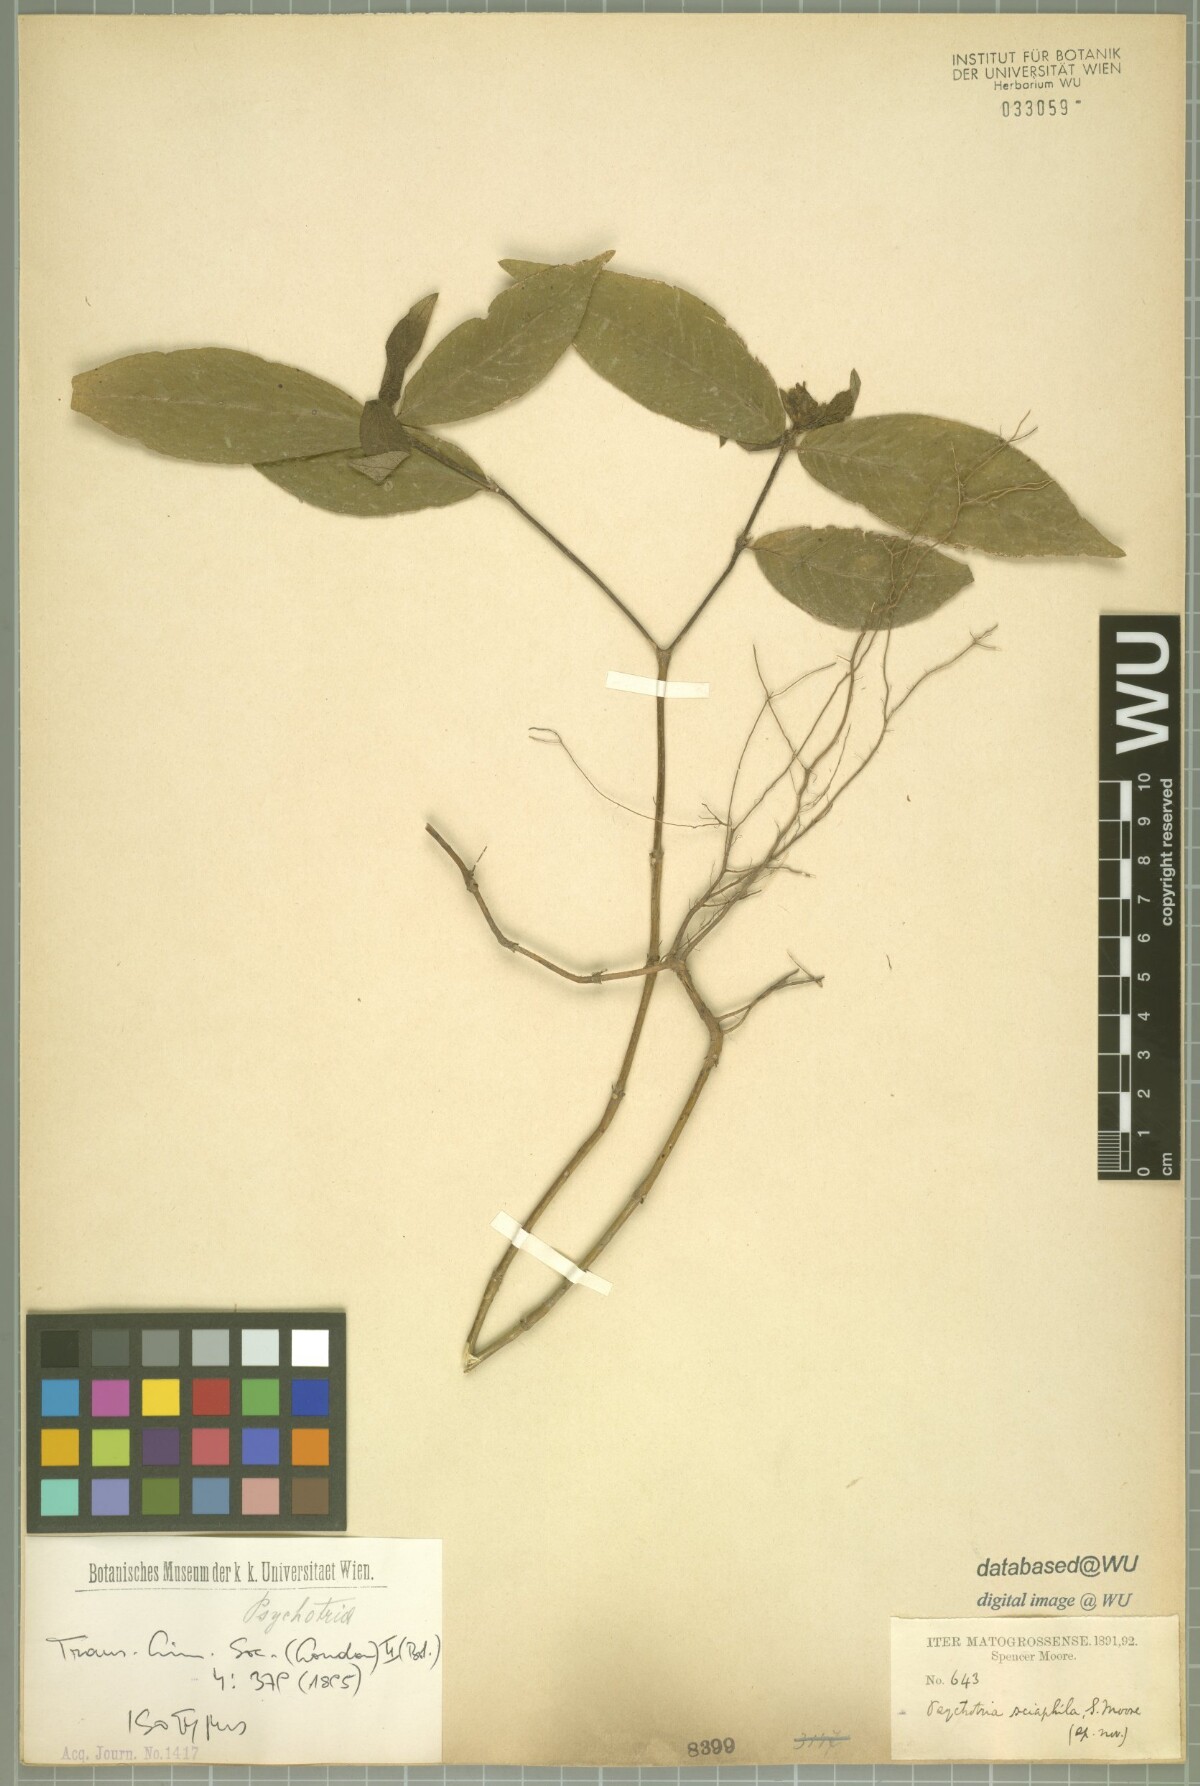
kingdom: Plantae
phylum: Tracheophyta
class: Magnoliopsida
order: Gentianales
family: Rubiaceae
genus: Palicourea
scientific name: Palicourea trichophora
